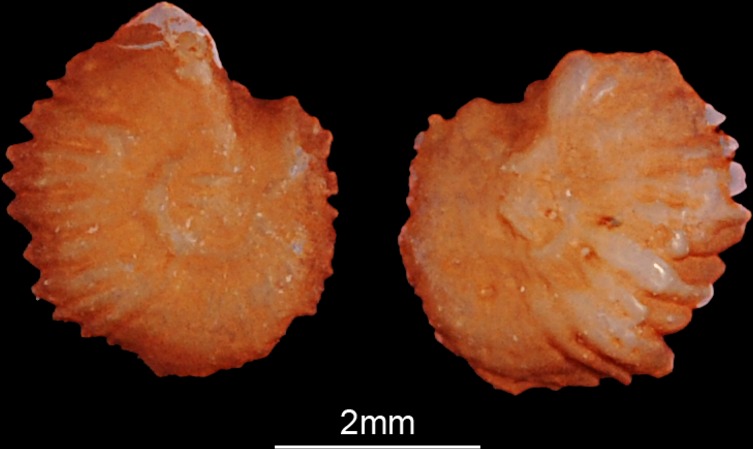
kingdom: Animalia
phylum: Chordata
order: Cypriniformes
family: Cyprinidae
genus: Leuciscus
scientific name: Leuciscus idus
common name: Ide
